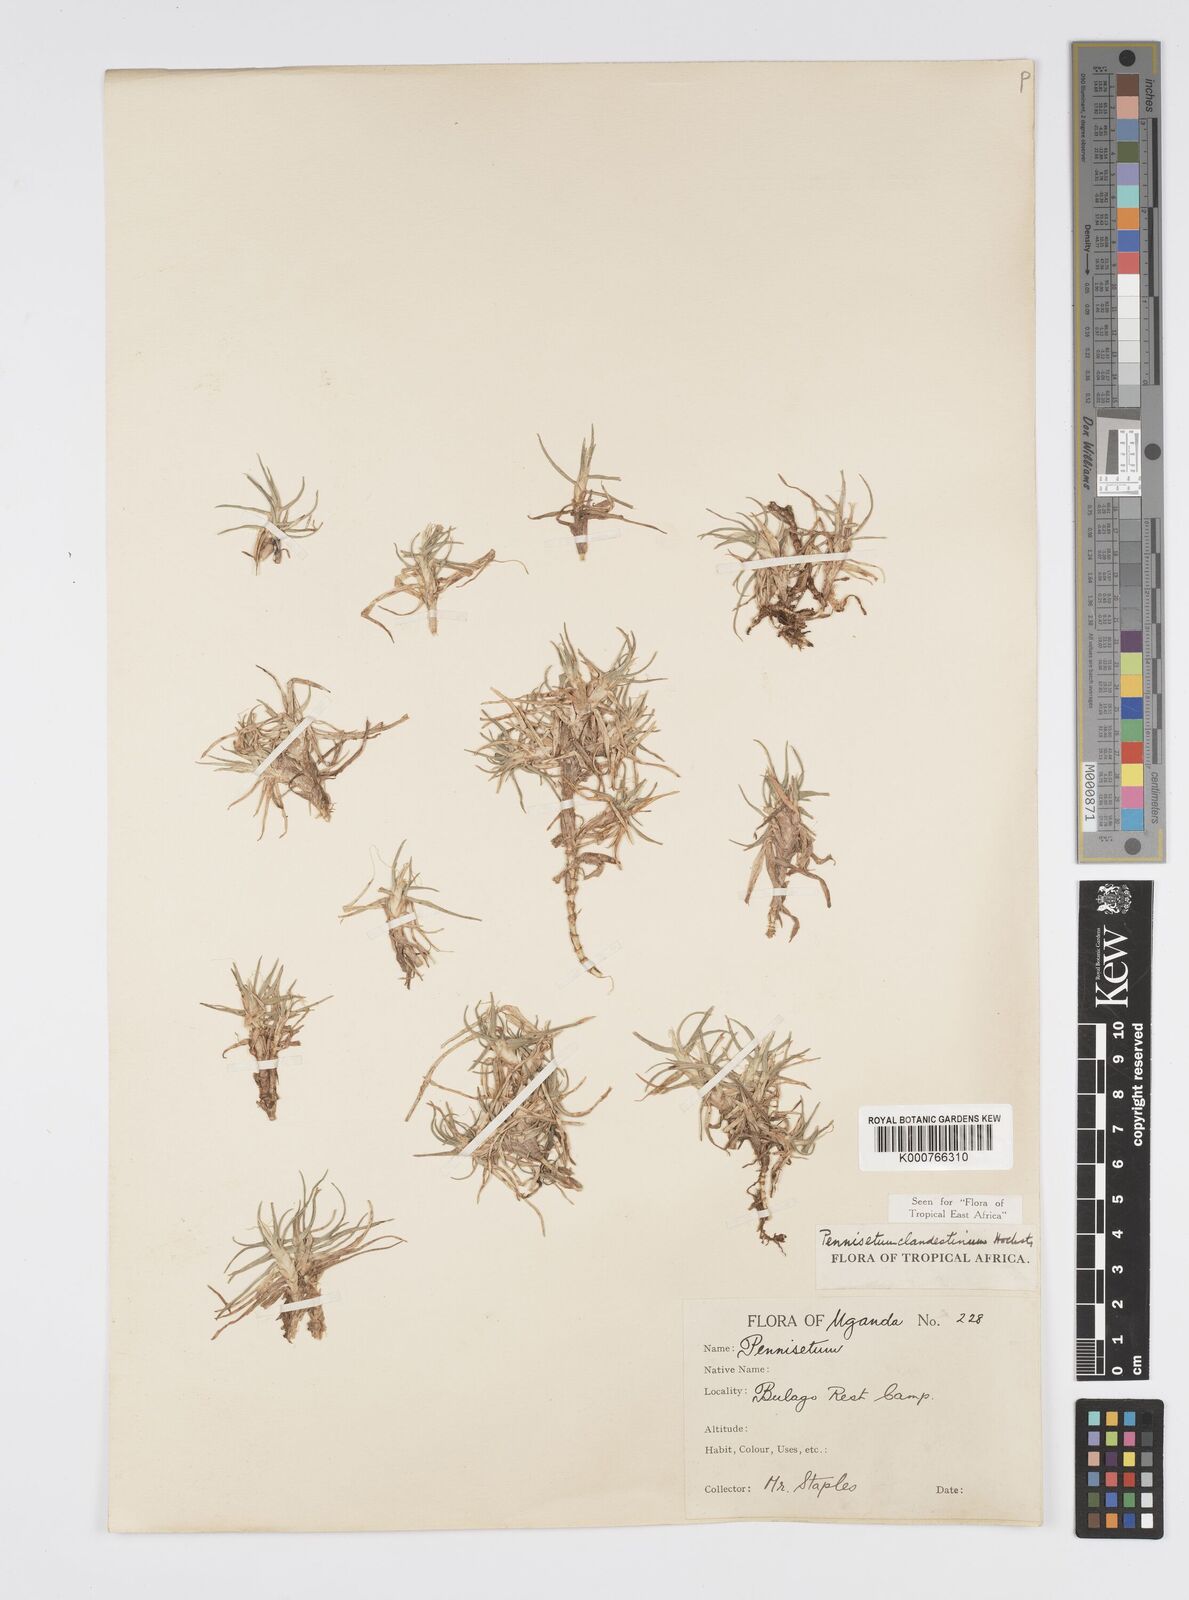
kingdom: Plantae
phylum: Tracheophyta
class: Liliopsida
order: Poales
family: Poaceae
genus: Cenchrus
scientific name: Cenchrus clandestinus
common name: Kikuyugrass
